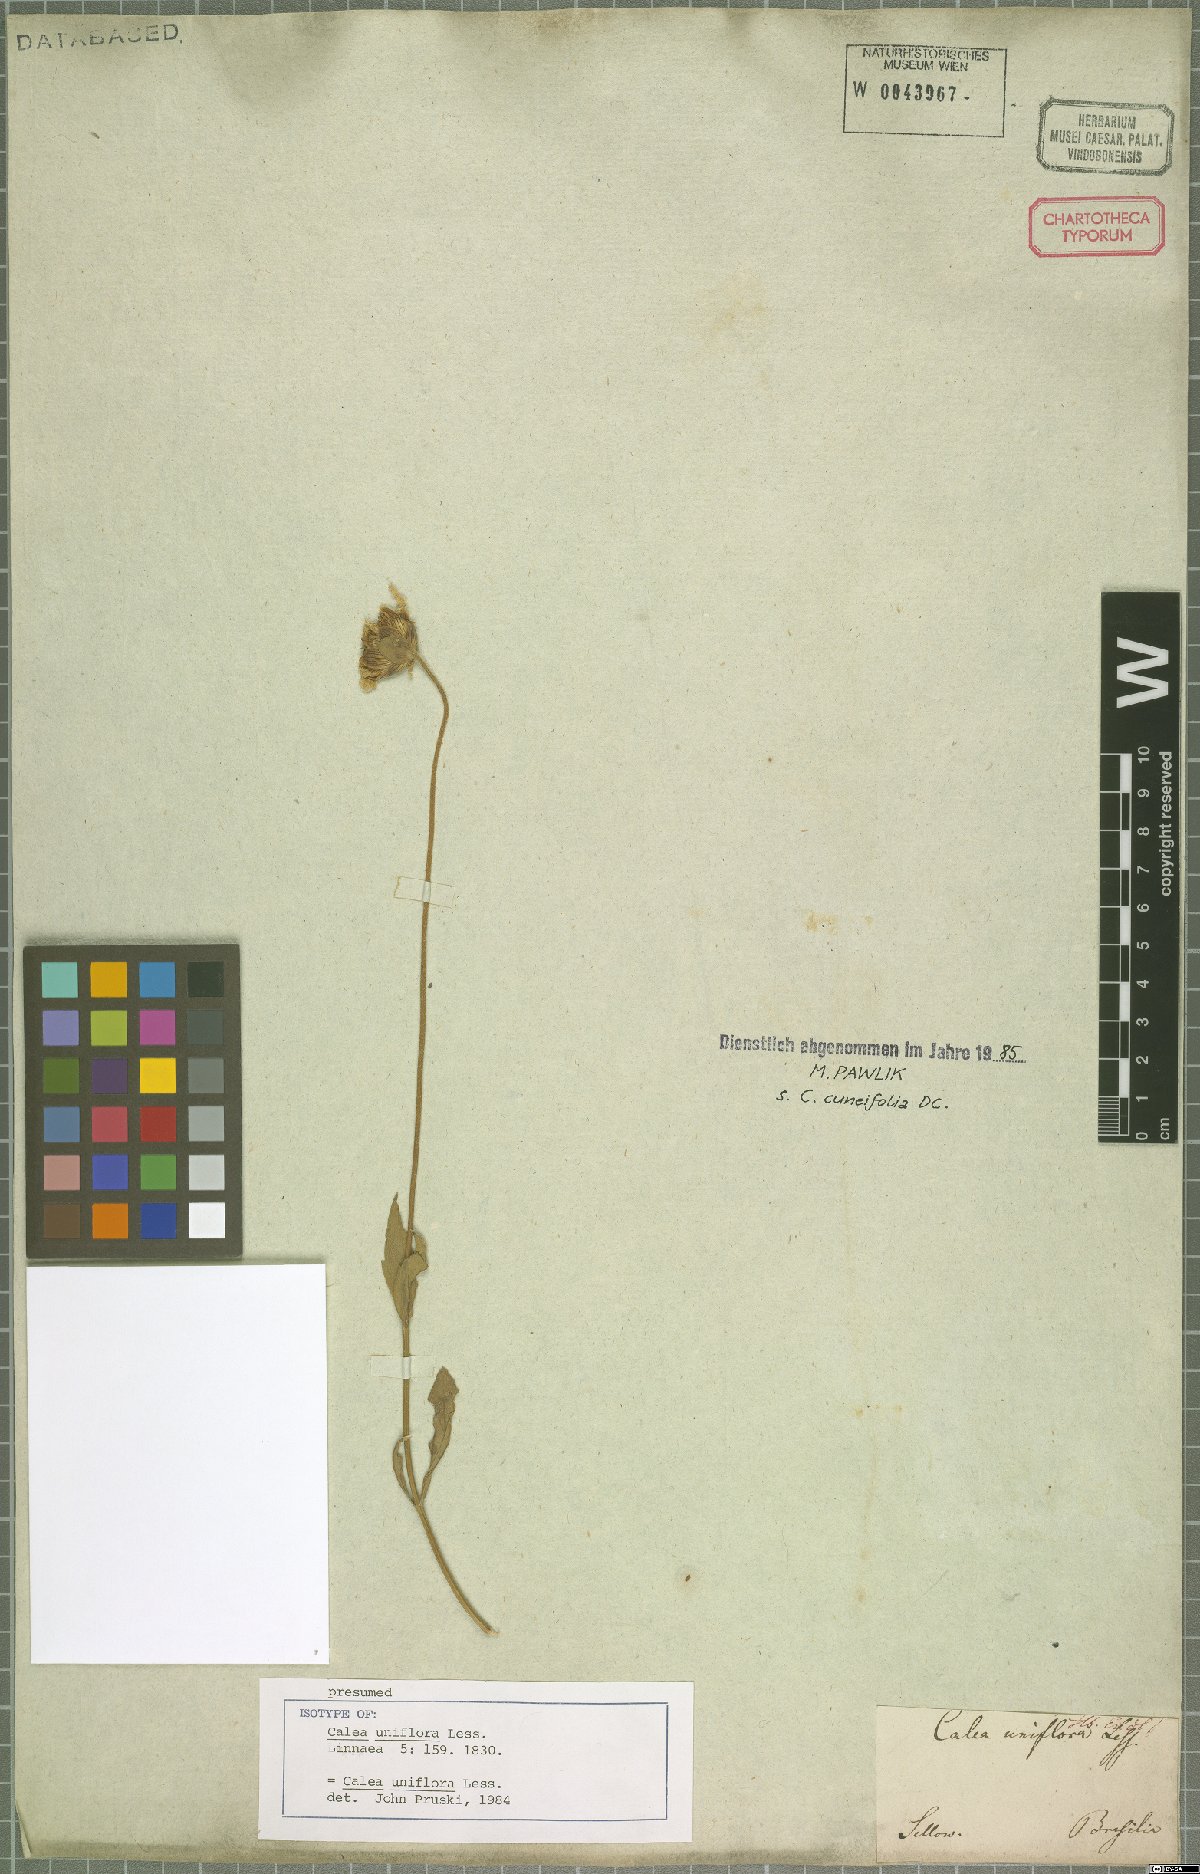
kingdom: Plantae
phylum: Tracheophyta
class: Magnoliopsida
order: Asterales
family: Asteraceae
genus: Calea
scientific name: Calea uniflora
